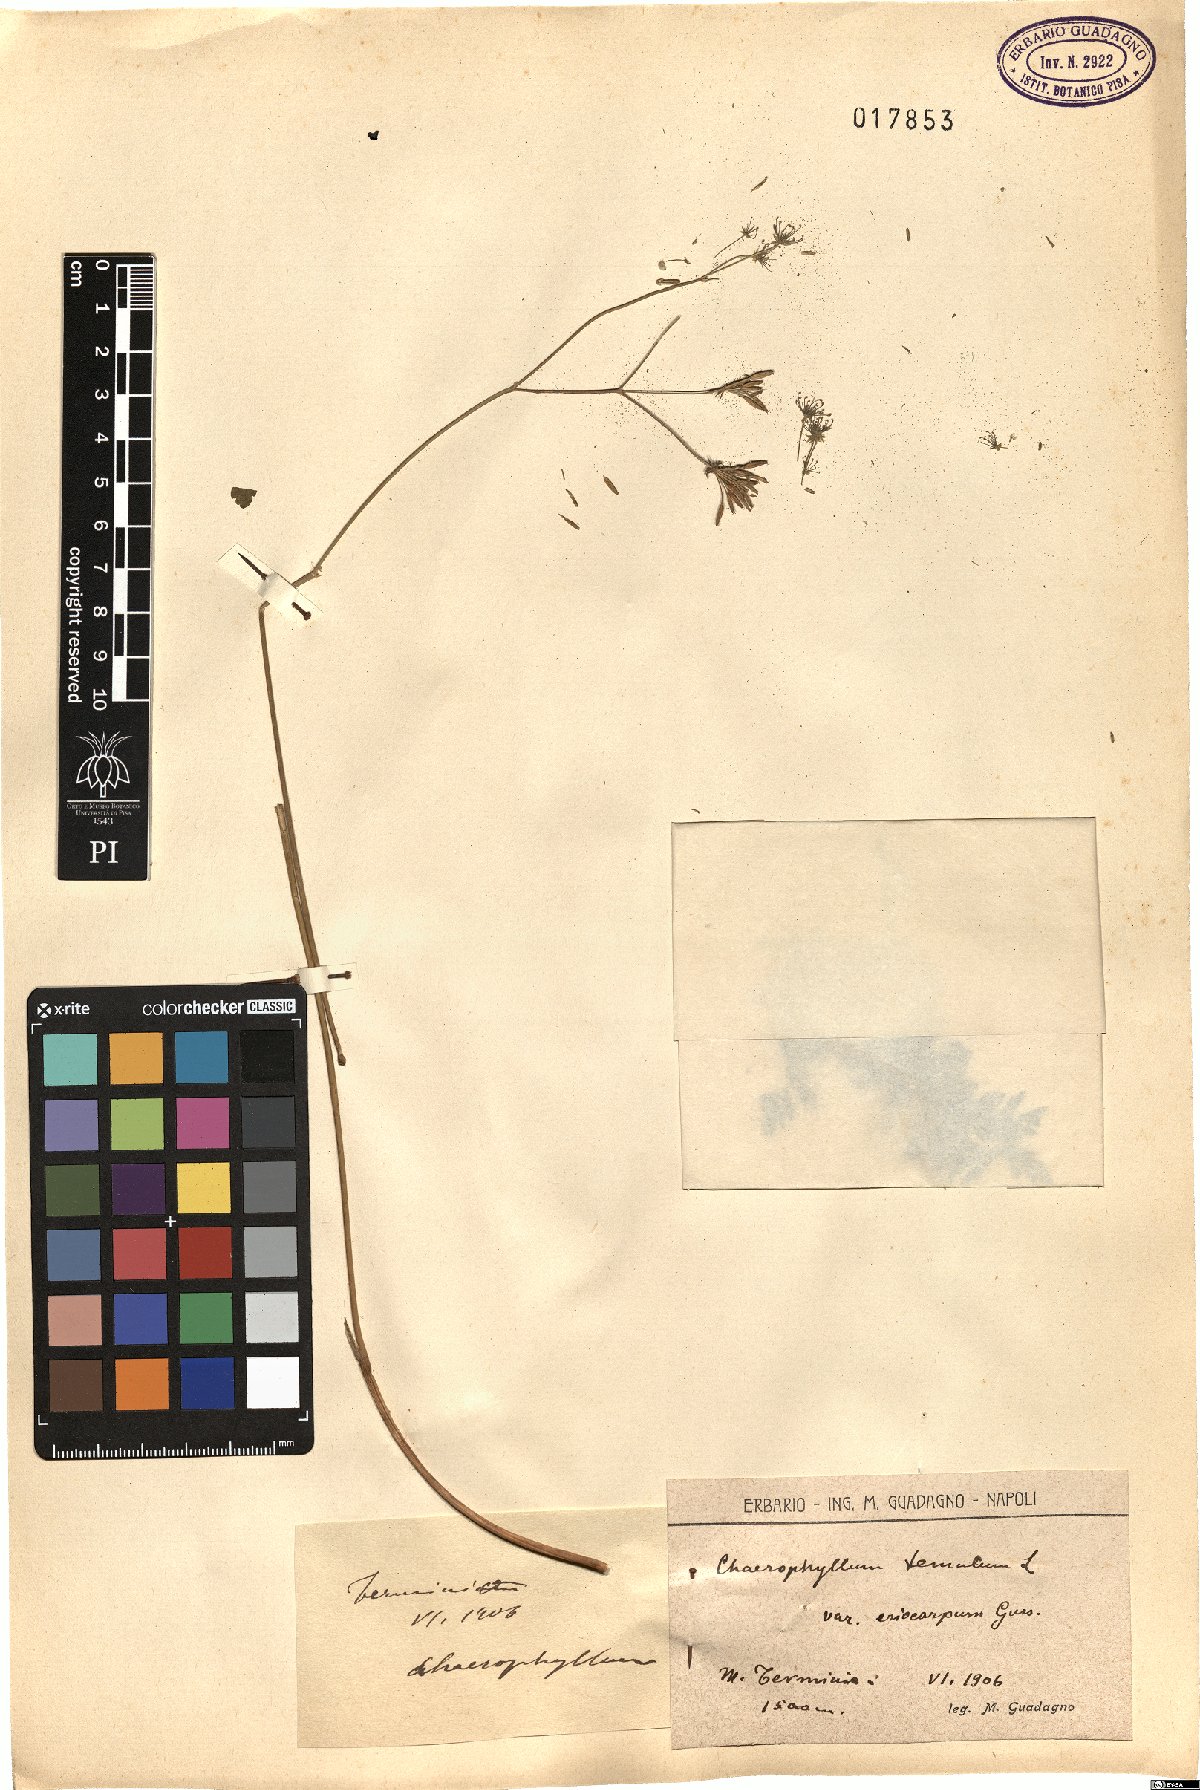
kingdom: Plantae
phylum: Tracheophyta
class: Magnoliopsida
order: Apiales
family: Apiaceae
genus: Chaerophyllum
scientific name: Chaerophyllum temulum
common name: Rough chervil
